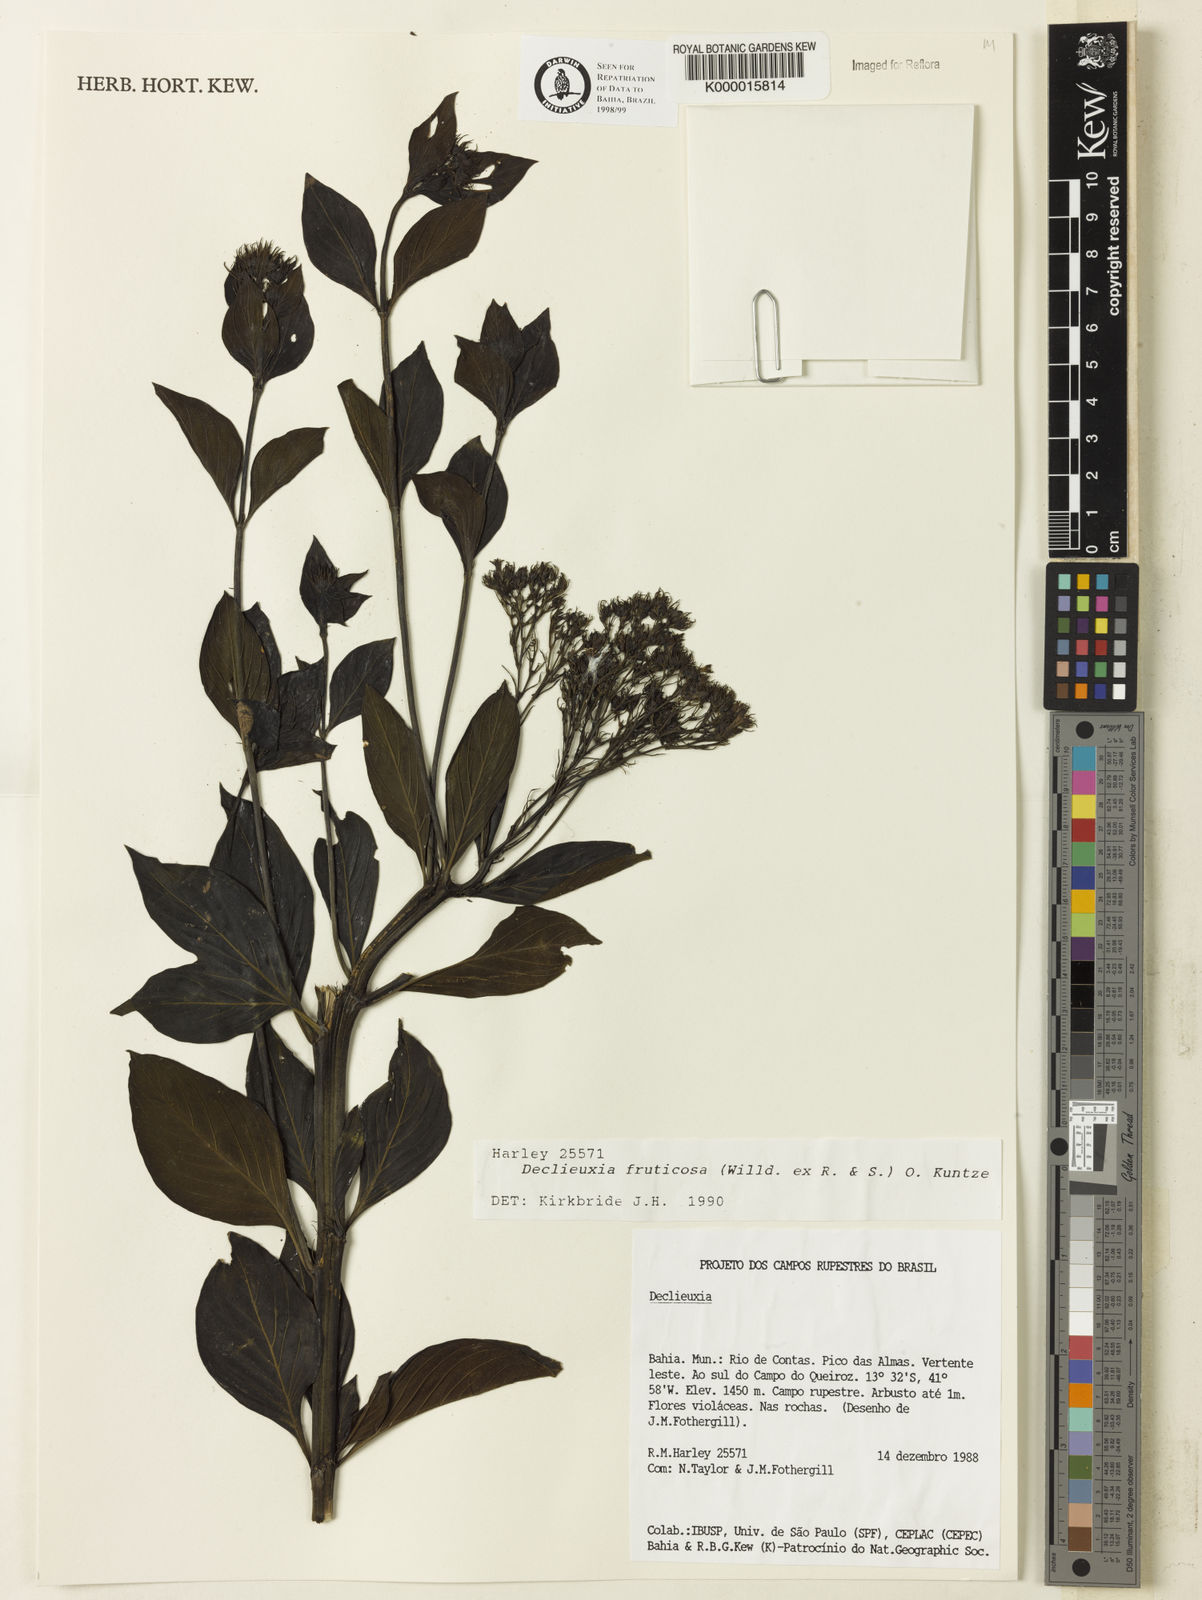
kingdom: Plantae
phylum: Tracheophyta
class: Magnoliopsida
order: Gentianales
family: Rubiaceae
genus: Declieuxia
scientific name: Declieuxia fruticosa
